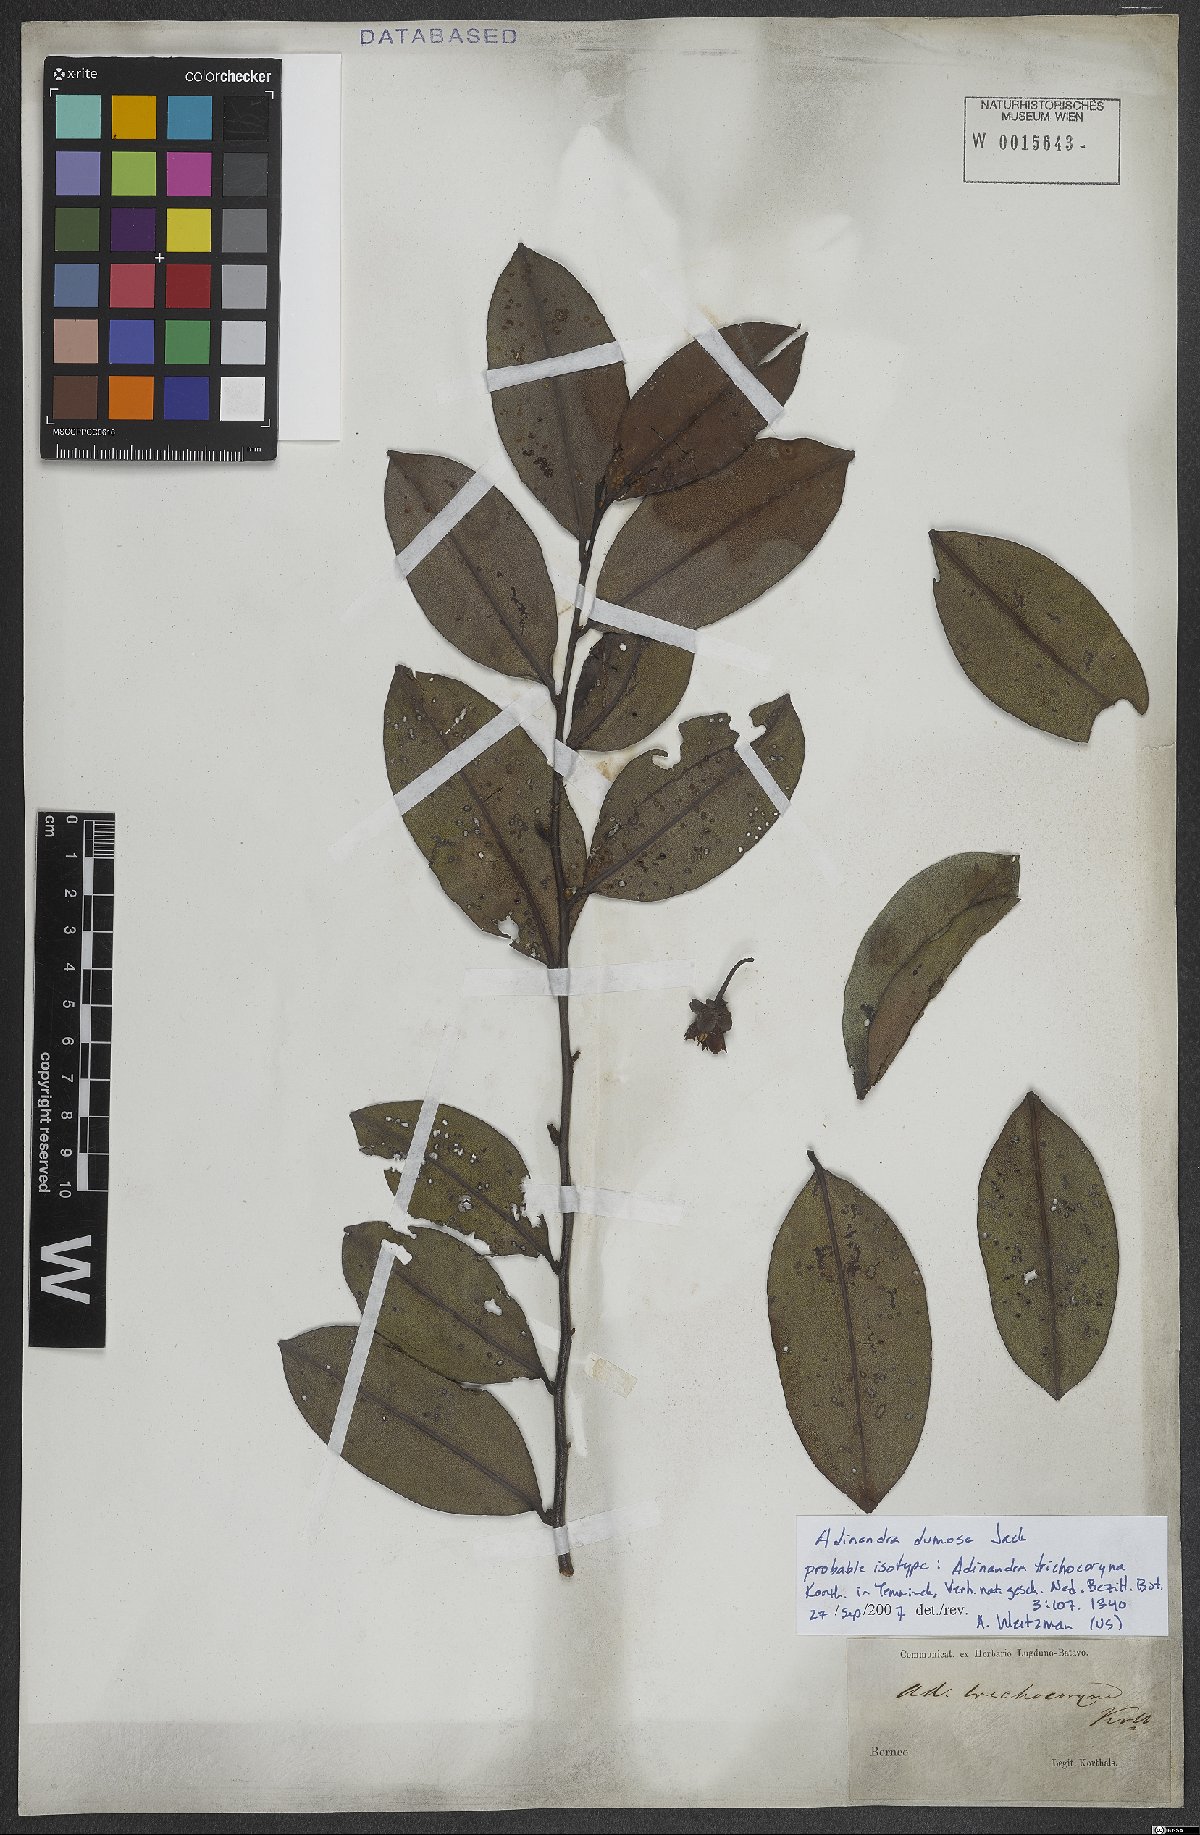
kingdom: Plantae
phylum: Tracheophyta
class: Magnoliopsida
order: Ericales
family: Pentaphylacaceae
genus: Adinandra
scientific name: Adinandra dumosa
